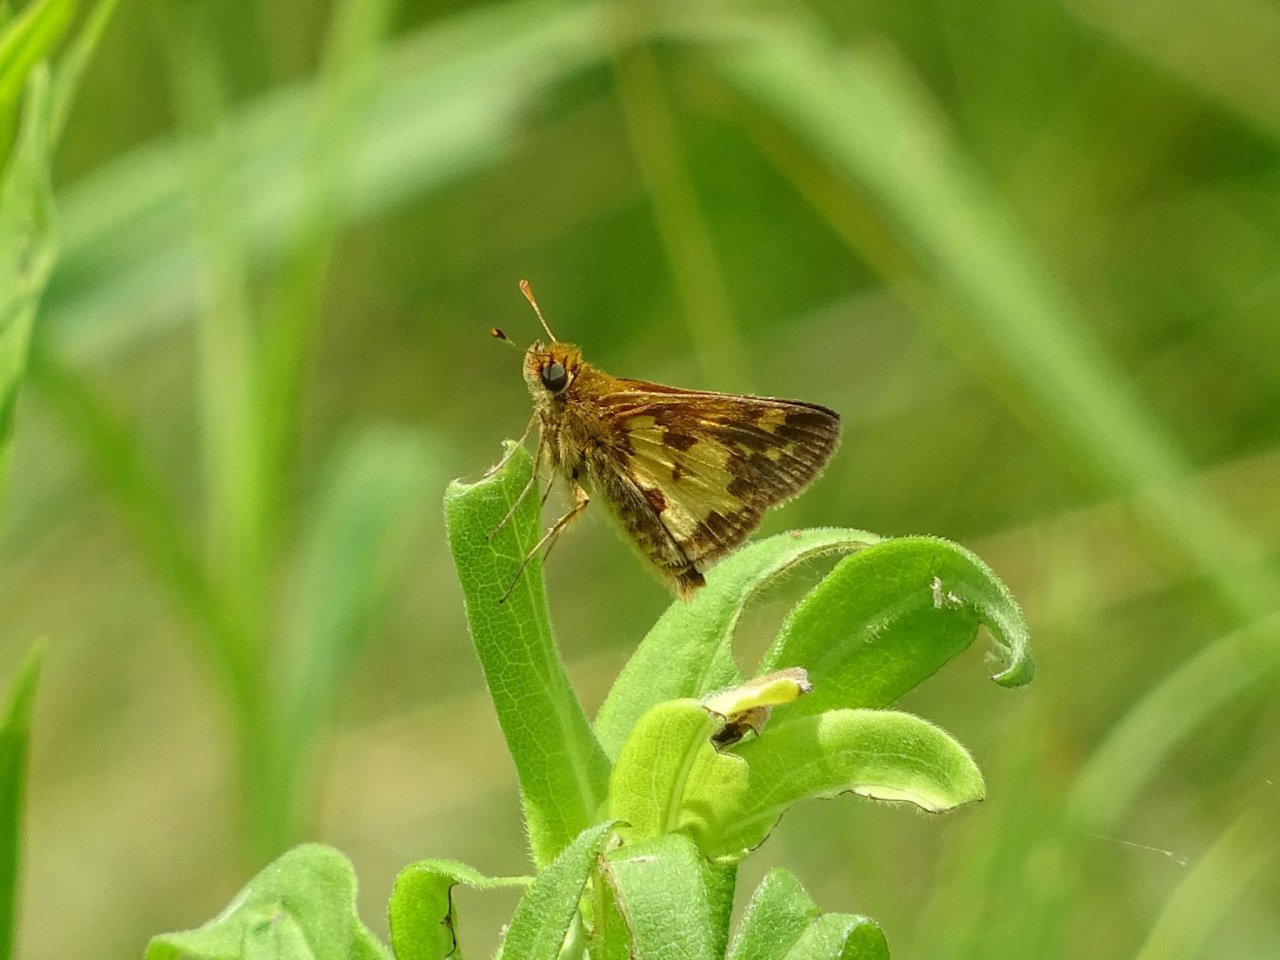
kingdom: Animalia
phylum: Arthropoda
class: Insecta
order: Lepidoptera
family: Hesperiidae
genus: Polites
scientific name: Polites coras
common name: Peck's Skipper
